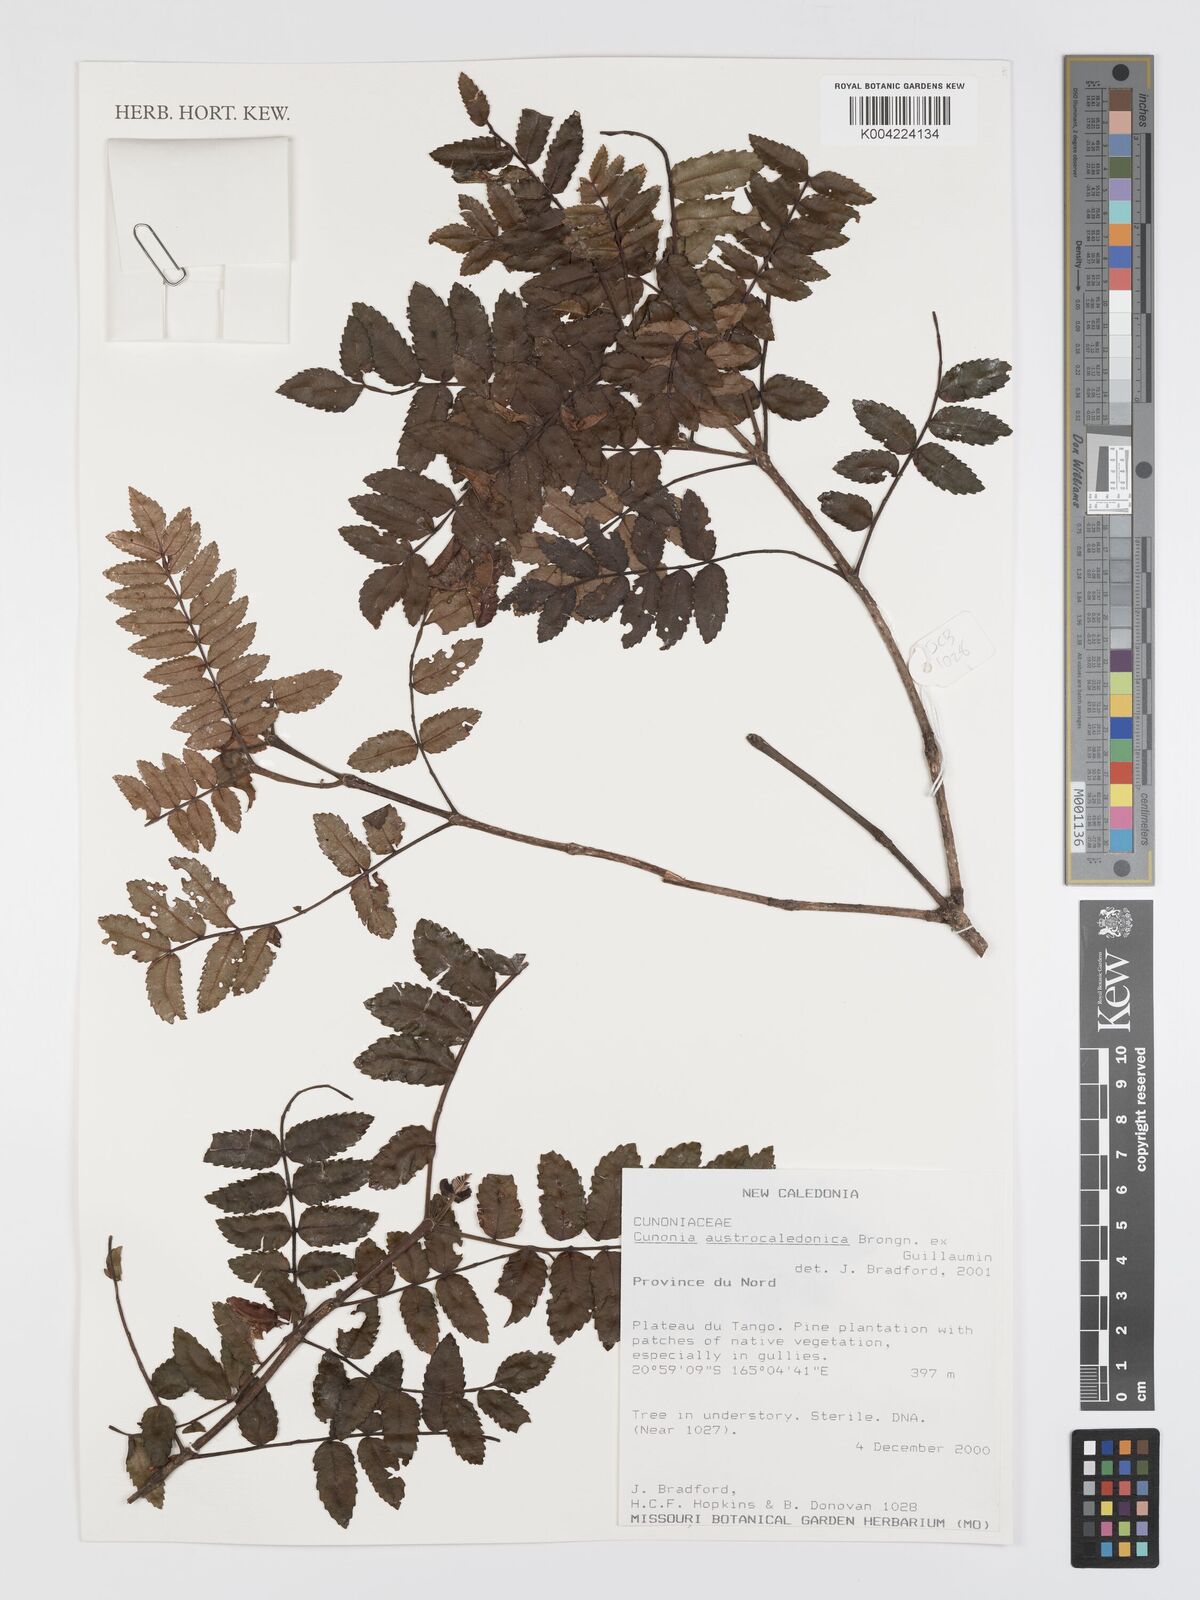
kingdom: Plantae
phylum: Tracheophyta
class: Magnoliopsida
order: Oxalidales
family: Cunoniaceae
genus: Cunonia
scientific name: Cunonia austrocaledonica
